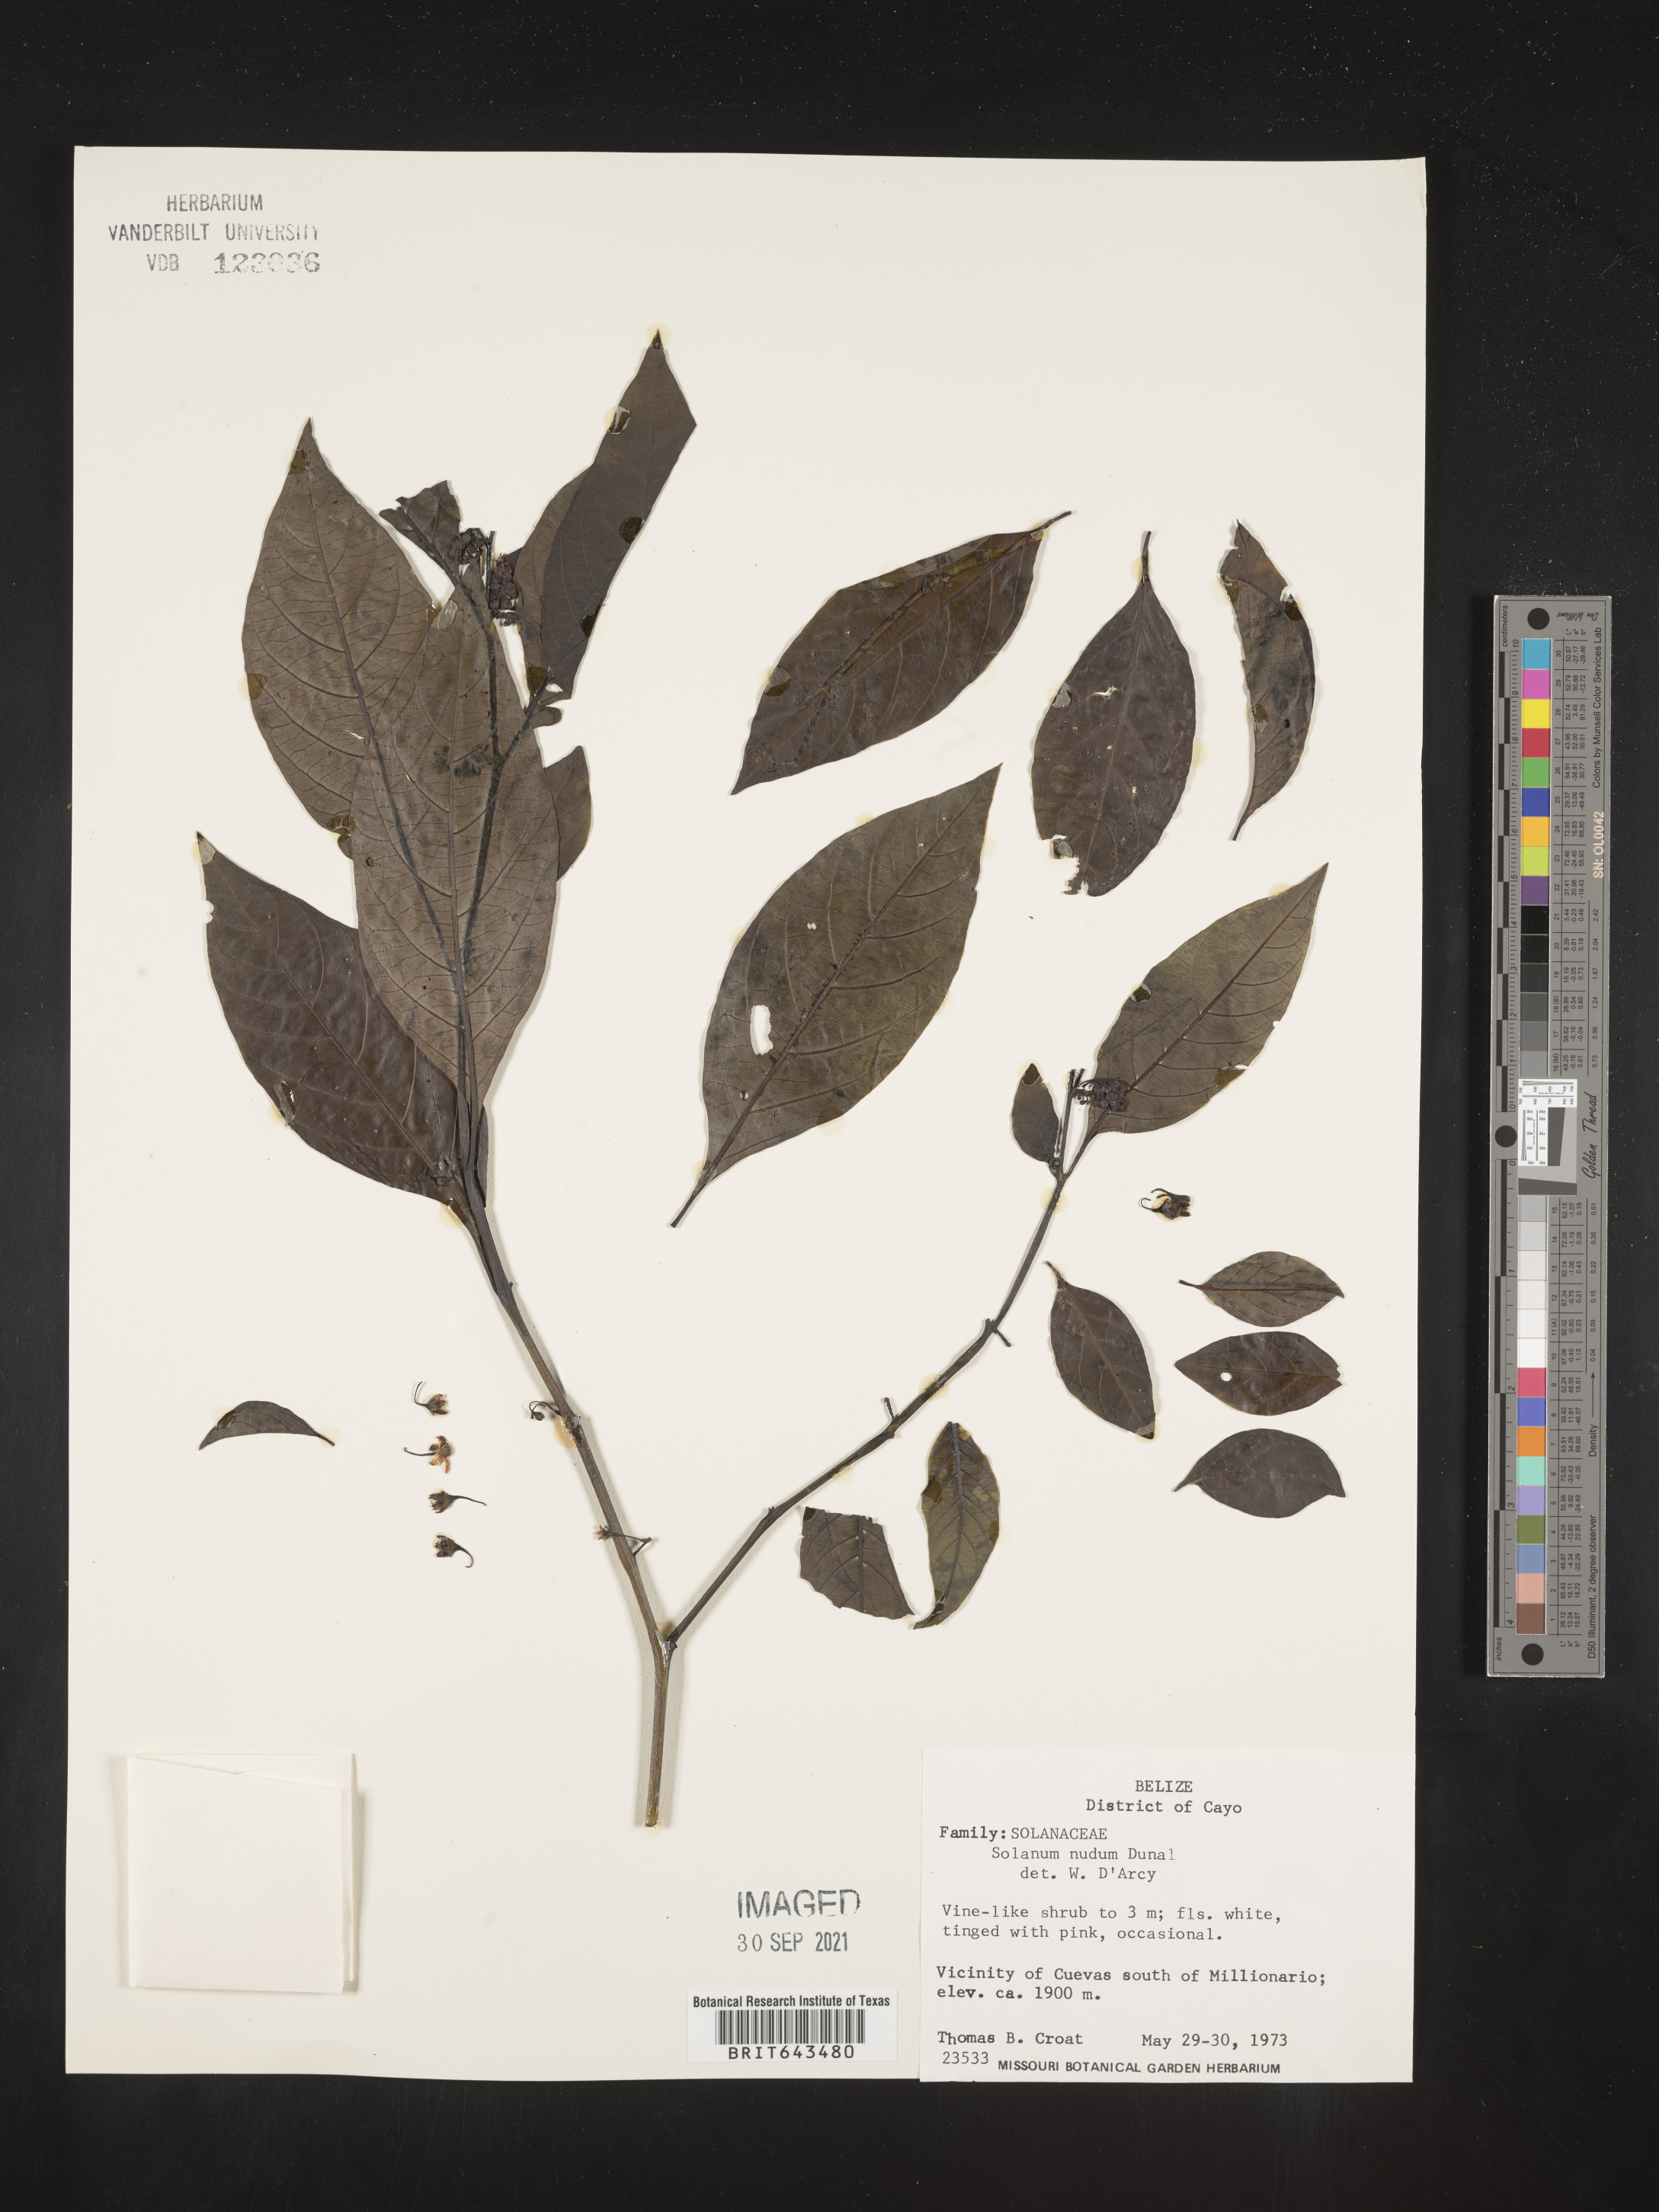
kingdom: Plantae
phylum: Tracheophyta
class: Magnoliopsida
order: Solanales
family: Solanaceae
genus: Solanum
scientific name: Solanum
